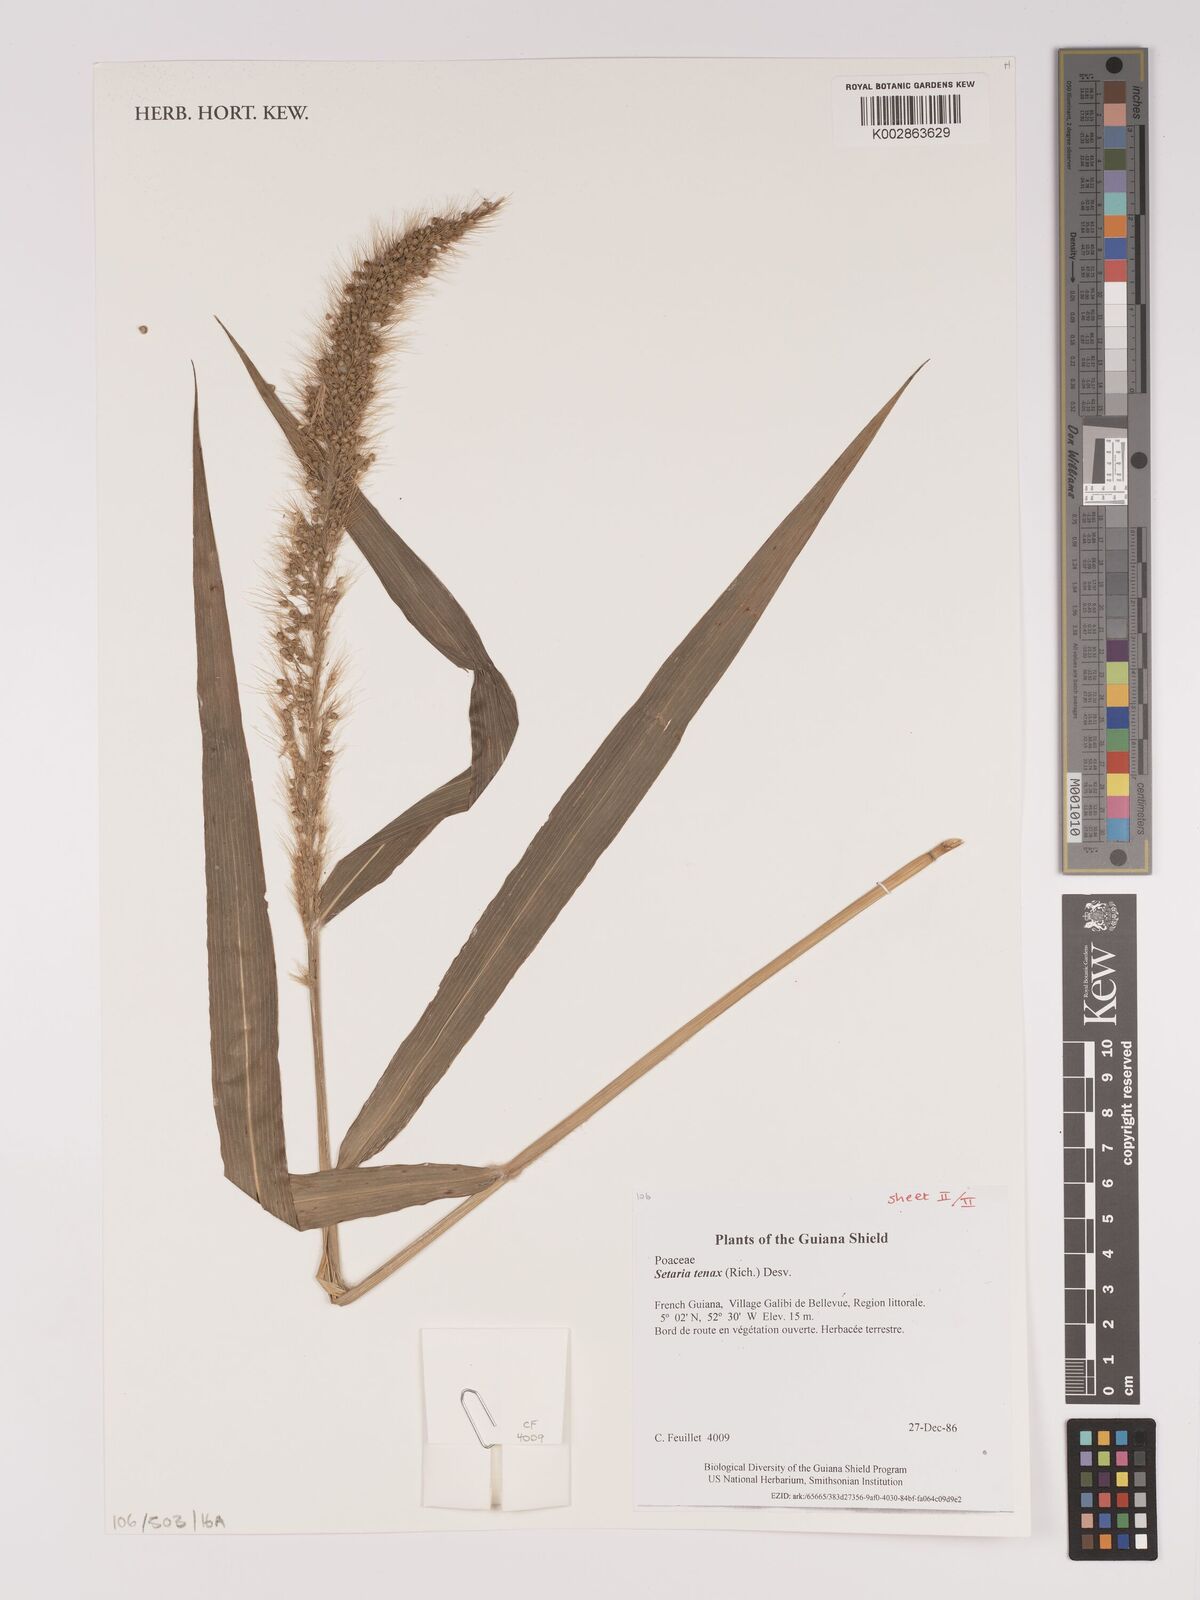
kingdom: Plantae
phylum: Tracheophyta
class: Liliopsida
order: Poales
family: Poaceae
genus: Setaria
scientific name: Setaria tenax
